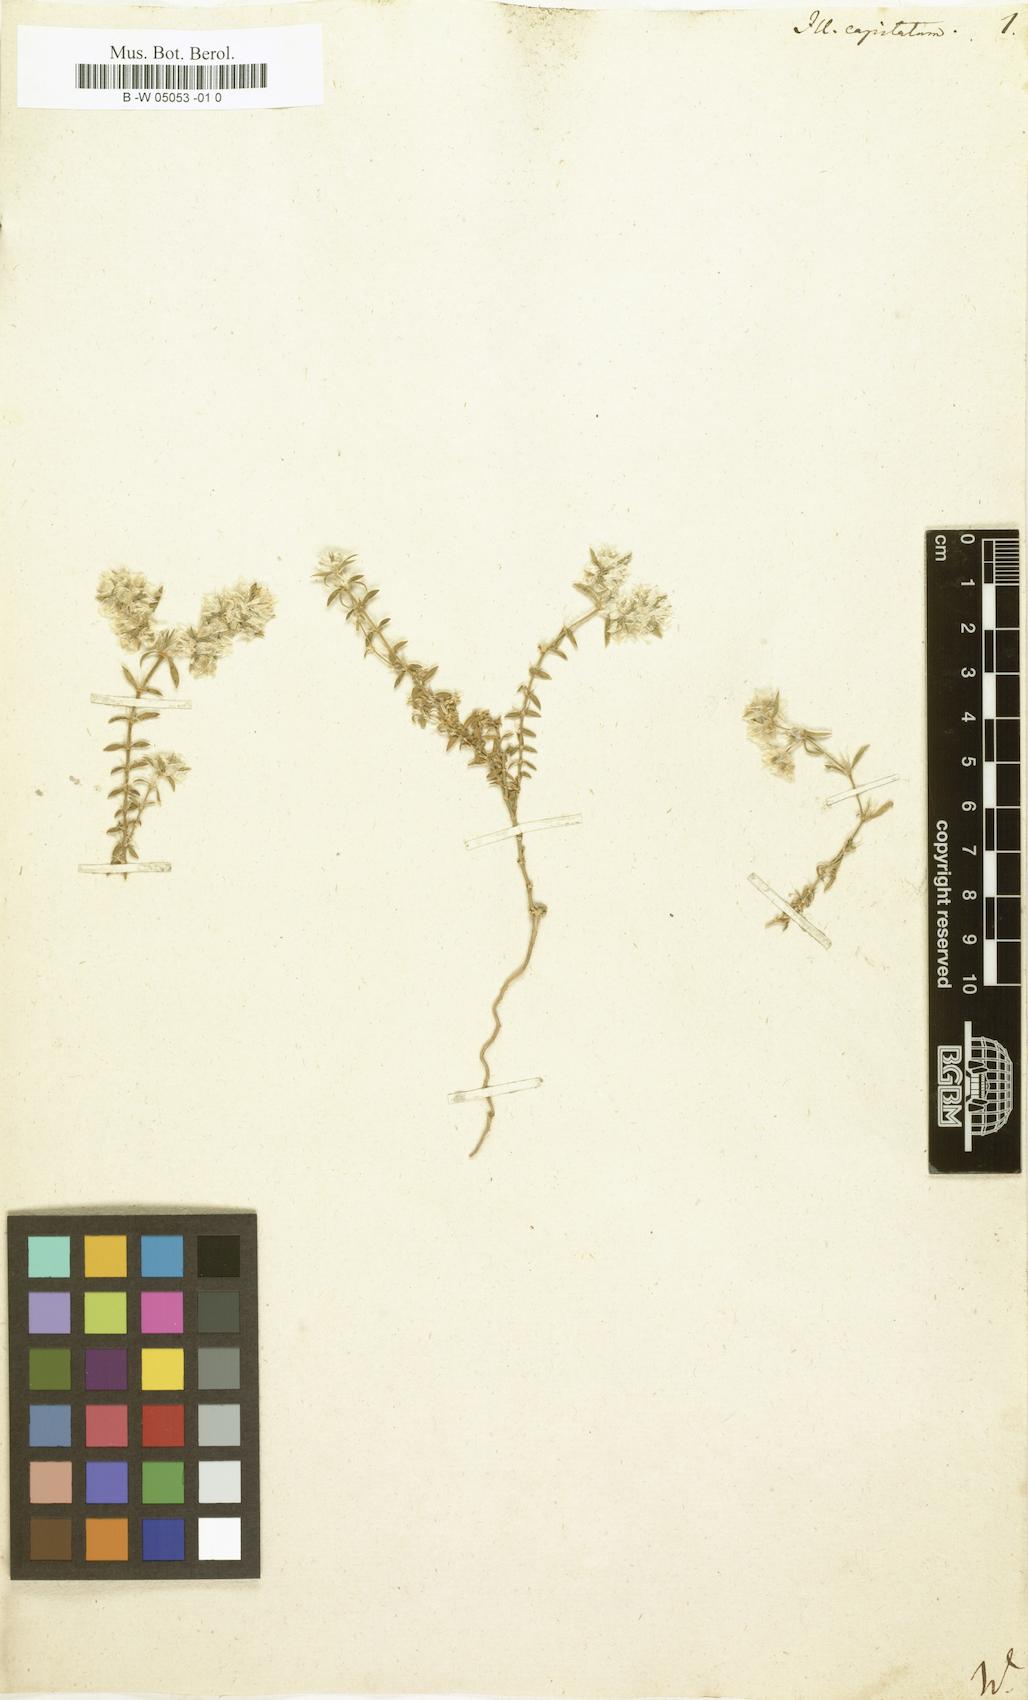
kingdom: Plantae
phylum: Tracheophyta
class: Magnoliopsida
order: Caryophyllales
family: Caryophyllaceae
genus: Paronychia
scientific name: Paronychia capitata
